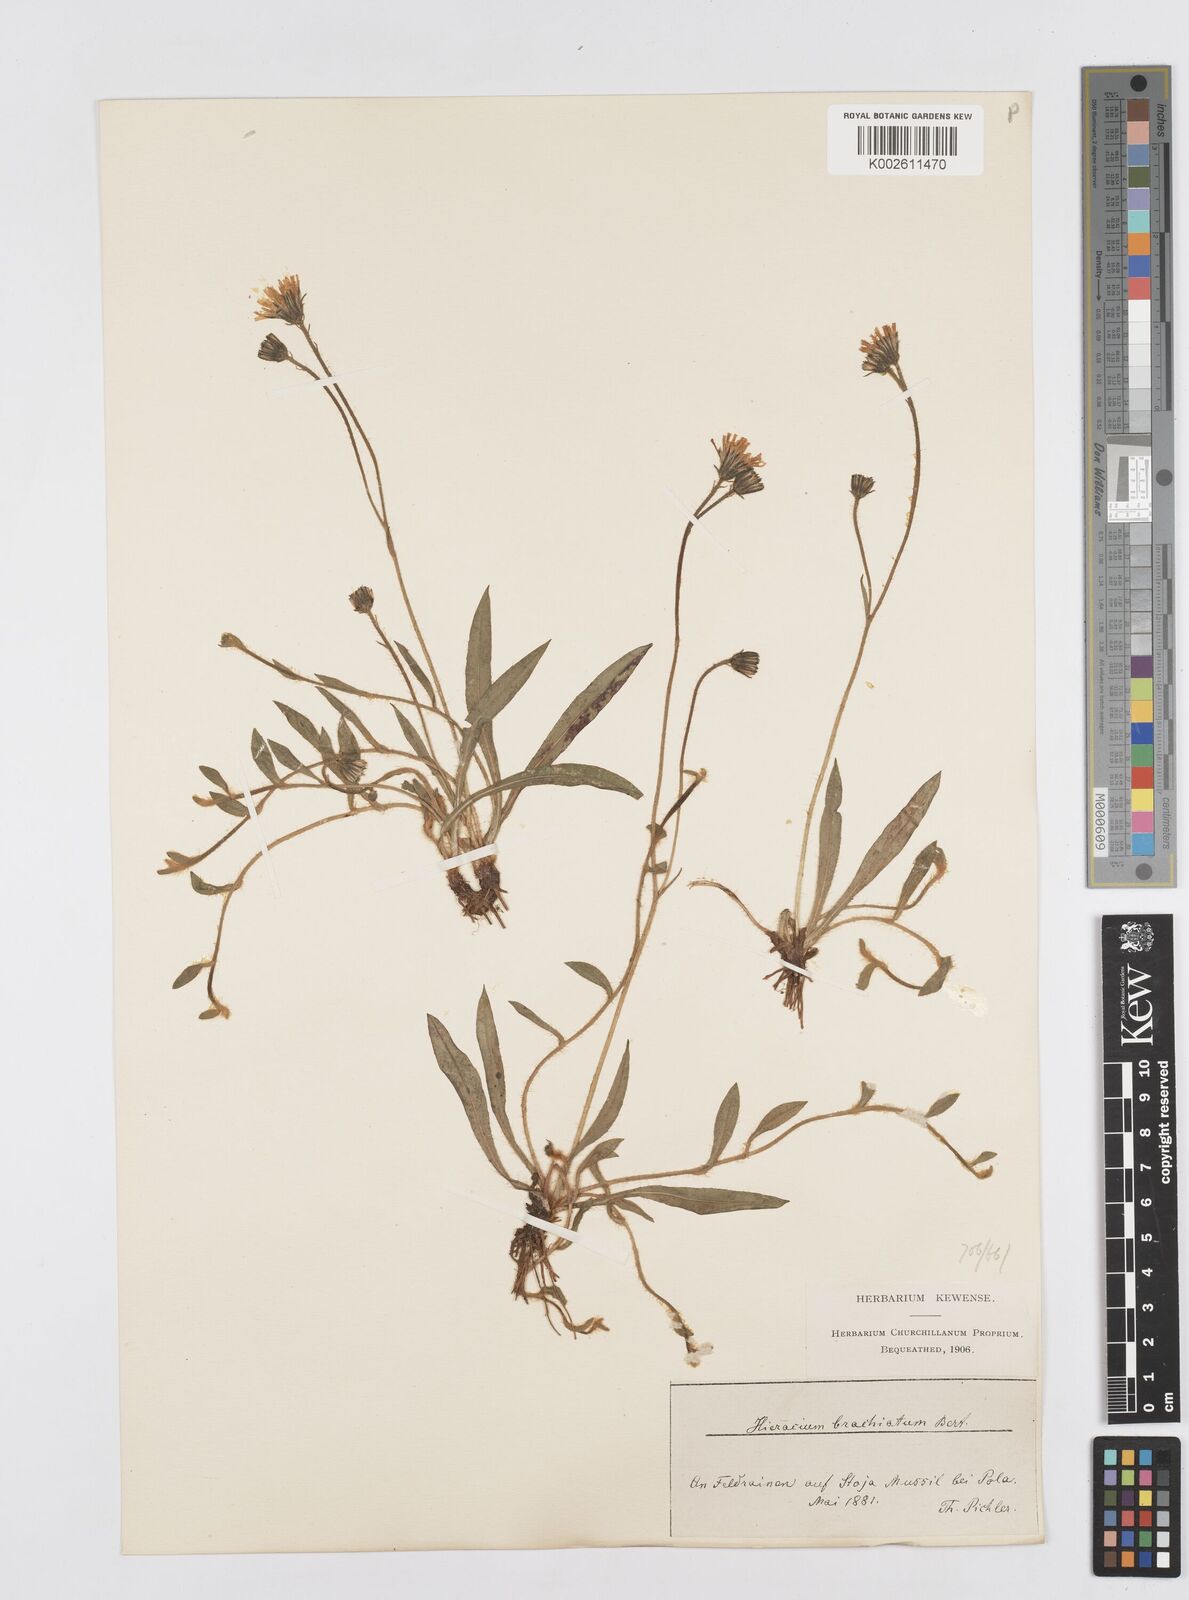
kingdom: Plantae
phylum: Tracheophyta
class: Magnoliopsida
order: Asterales
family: Asteraceae
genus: Pilosella
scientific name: Pilosella acutifolia
